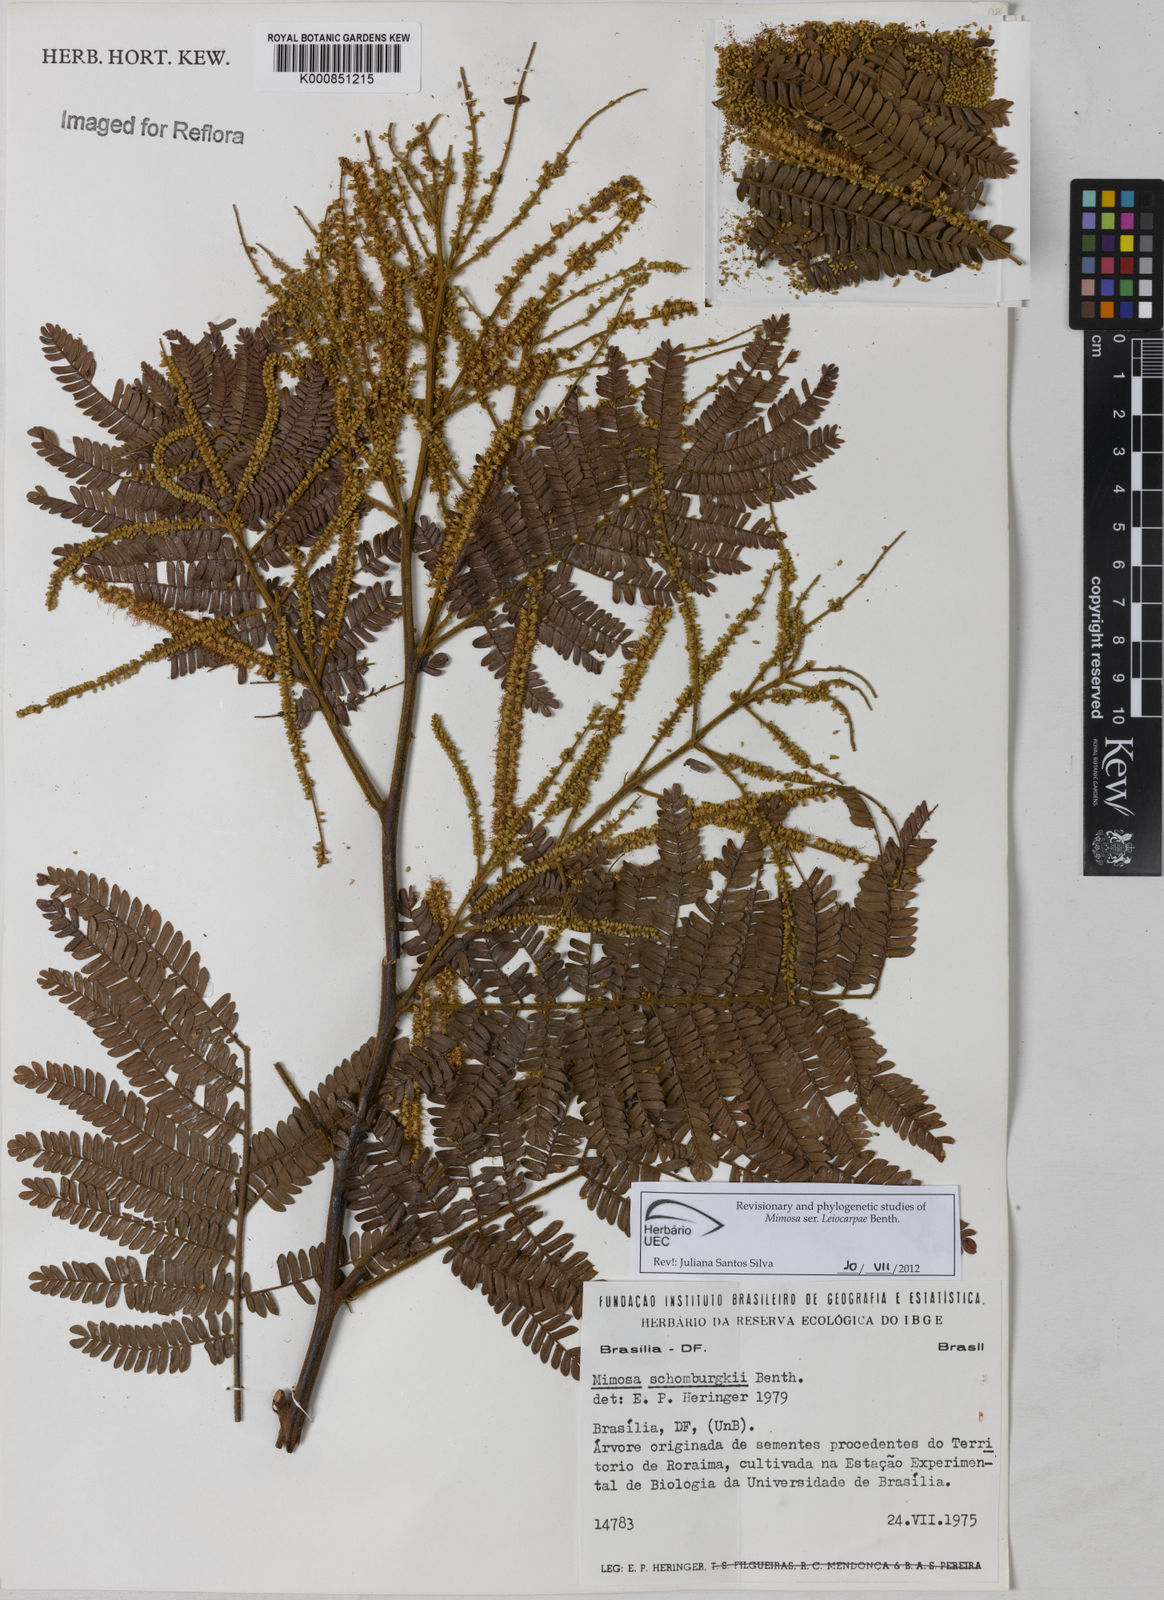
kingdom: Plantae
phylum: Tracheophyta
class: Magnoliopsida
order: Fabales
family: Fabaceae
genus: Mimosa
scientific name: Mimosa schomburgkii
